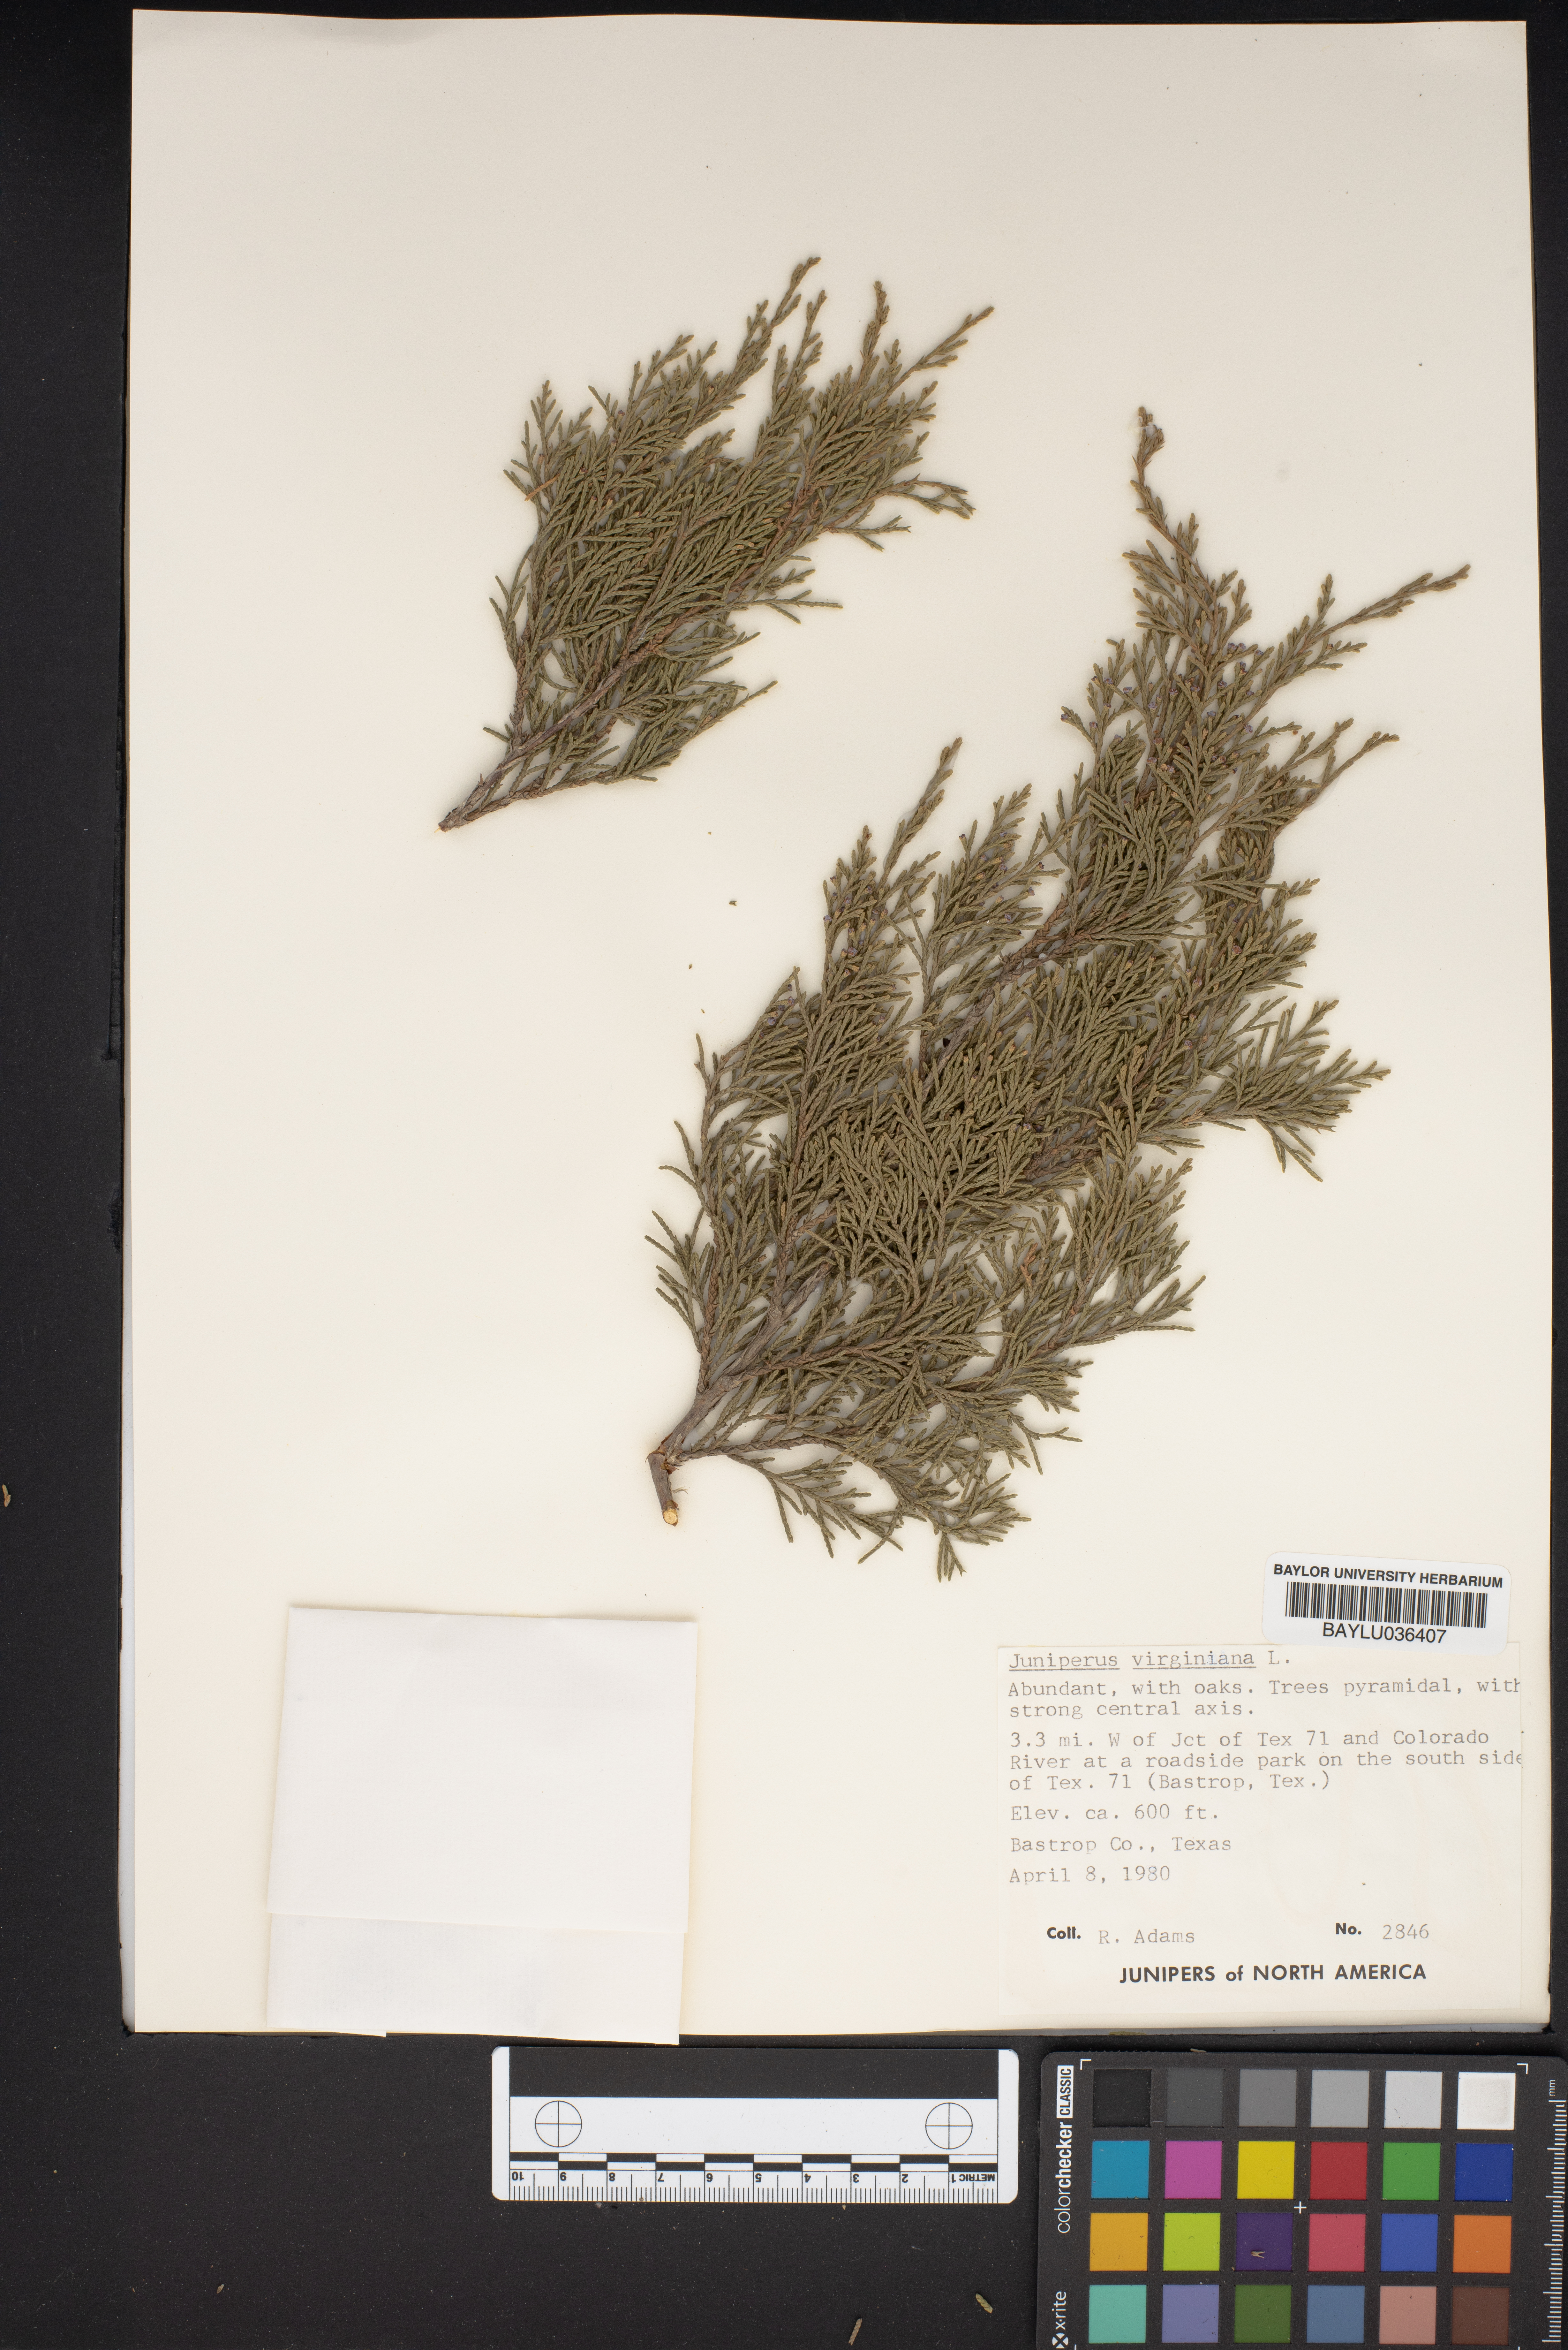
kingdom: Plantae
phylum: Tracheophyta
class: Pinopsida
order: Pinales
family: Cupressaceae
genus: Juniperus
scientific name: Juniperus virginiana
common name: Red juniper
